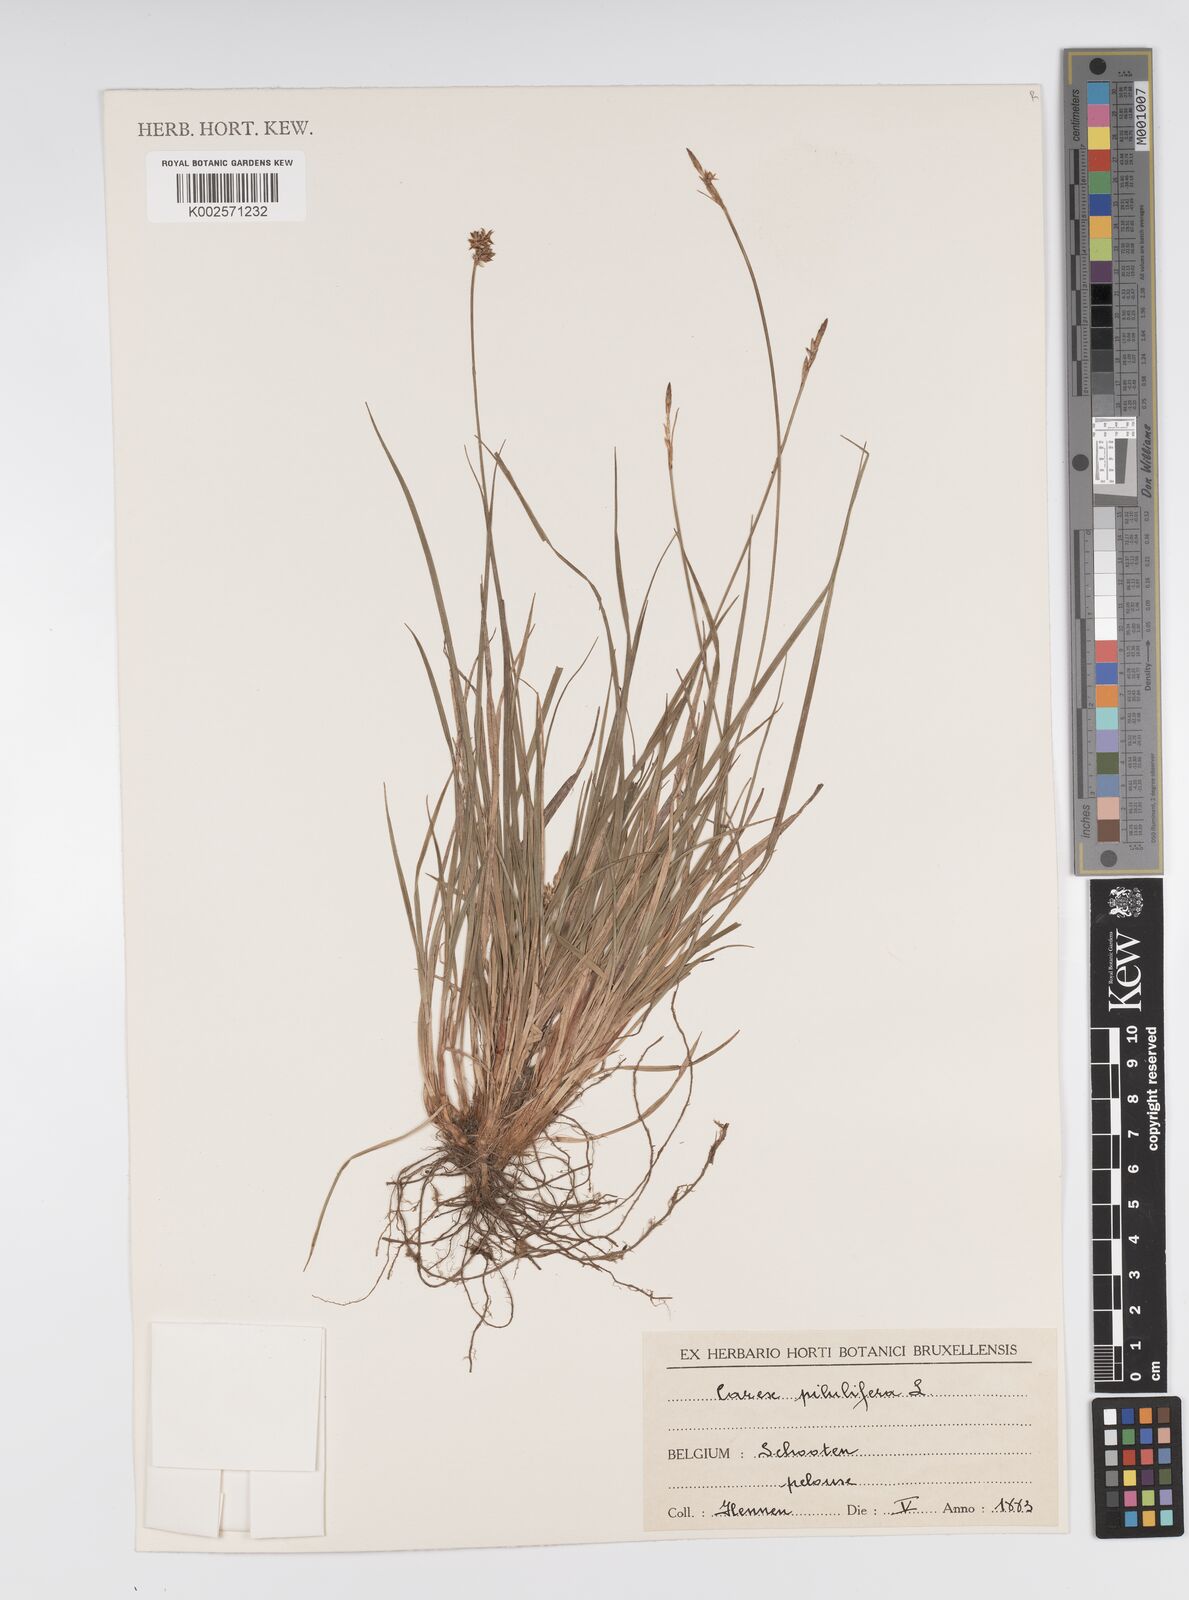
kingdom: Plantae
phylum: Tracheophyta
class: Liliopsida
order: Poales
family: Cyperaceae
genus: Carex
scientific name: Carex pilulifera
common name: Pill sedge
